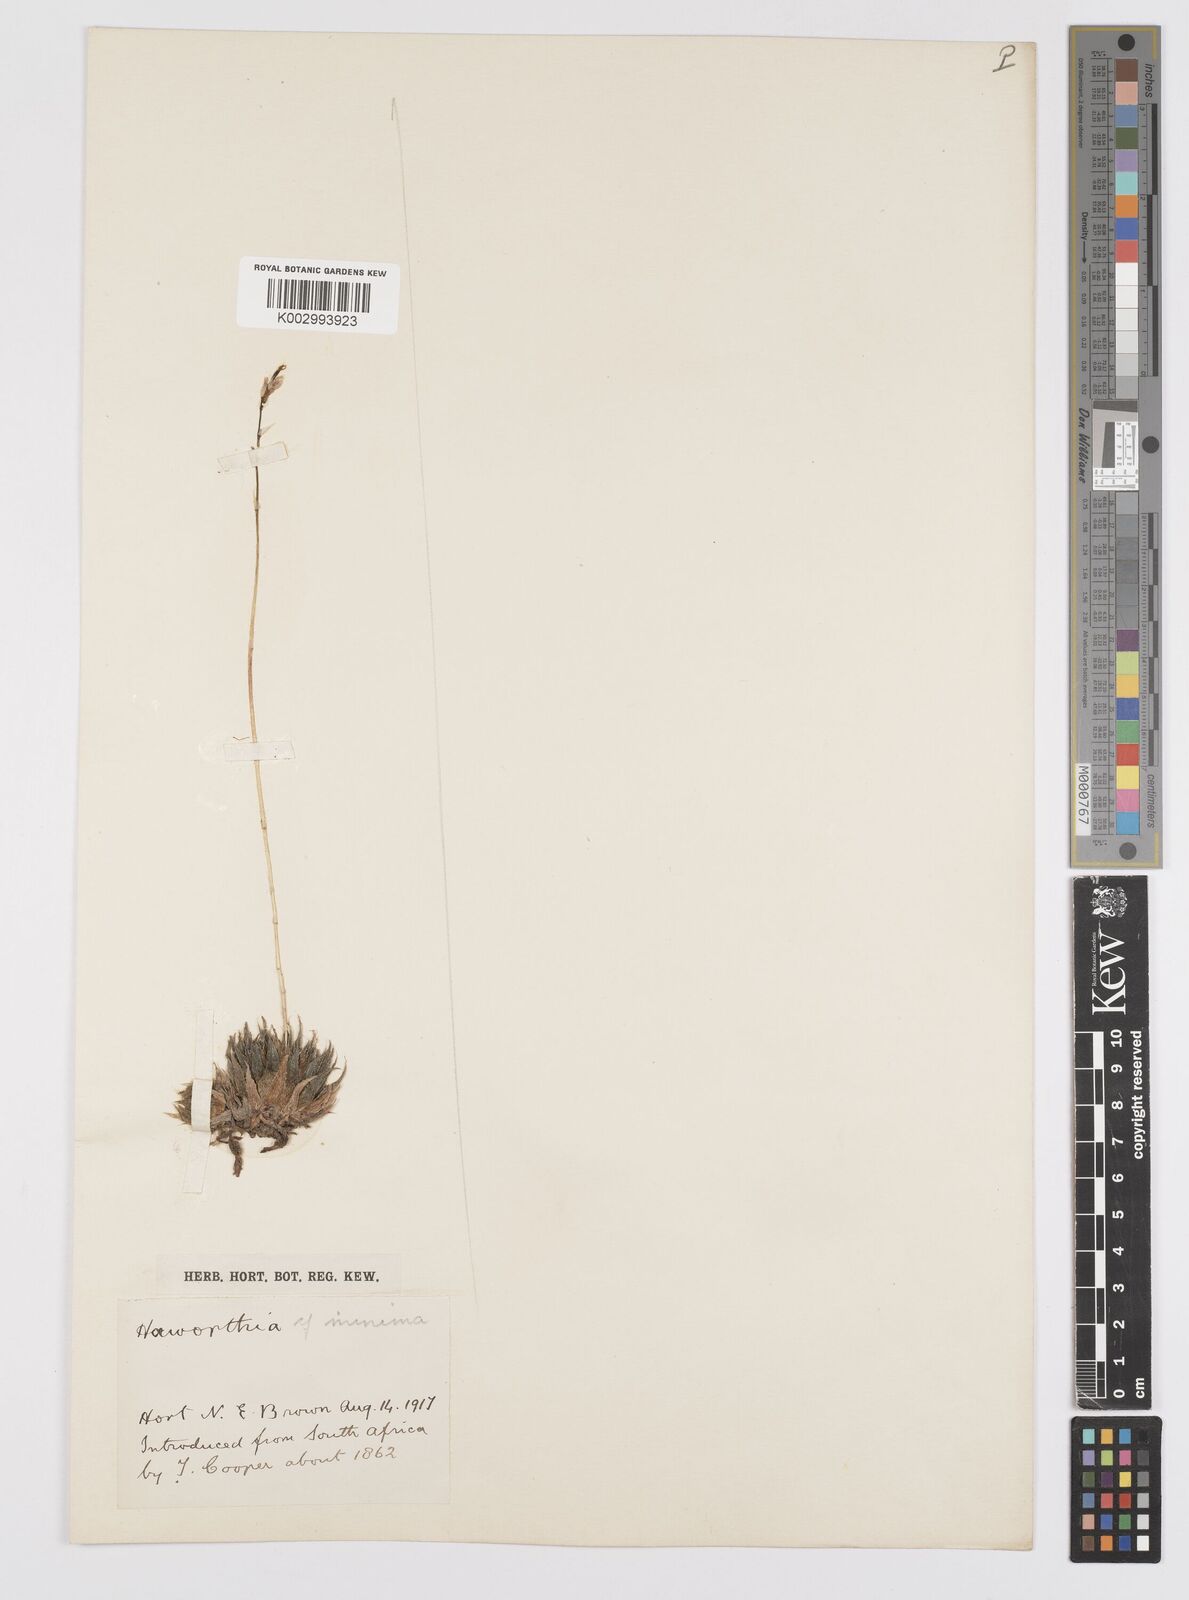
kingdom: Plantae
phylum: Tracheophyta
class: Liliopsida
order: Asparagales
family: Asphodelaceae
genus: Haworthia
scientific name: Haworthia cooperi
